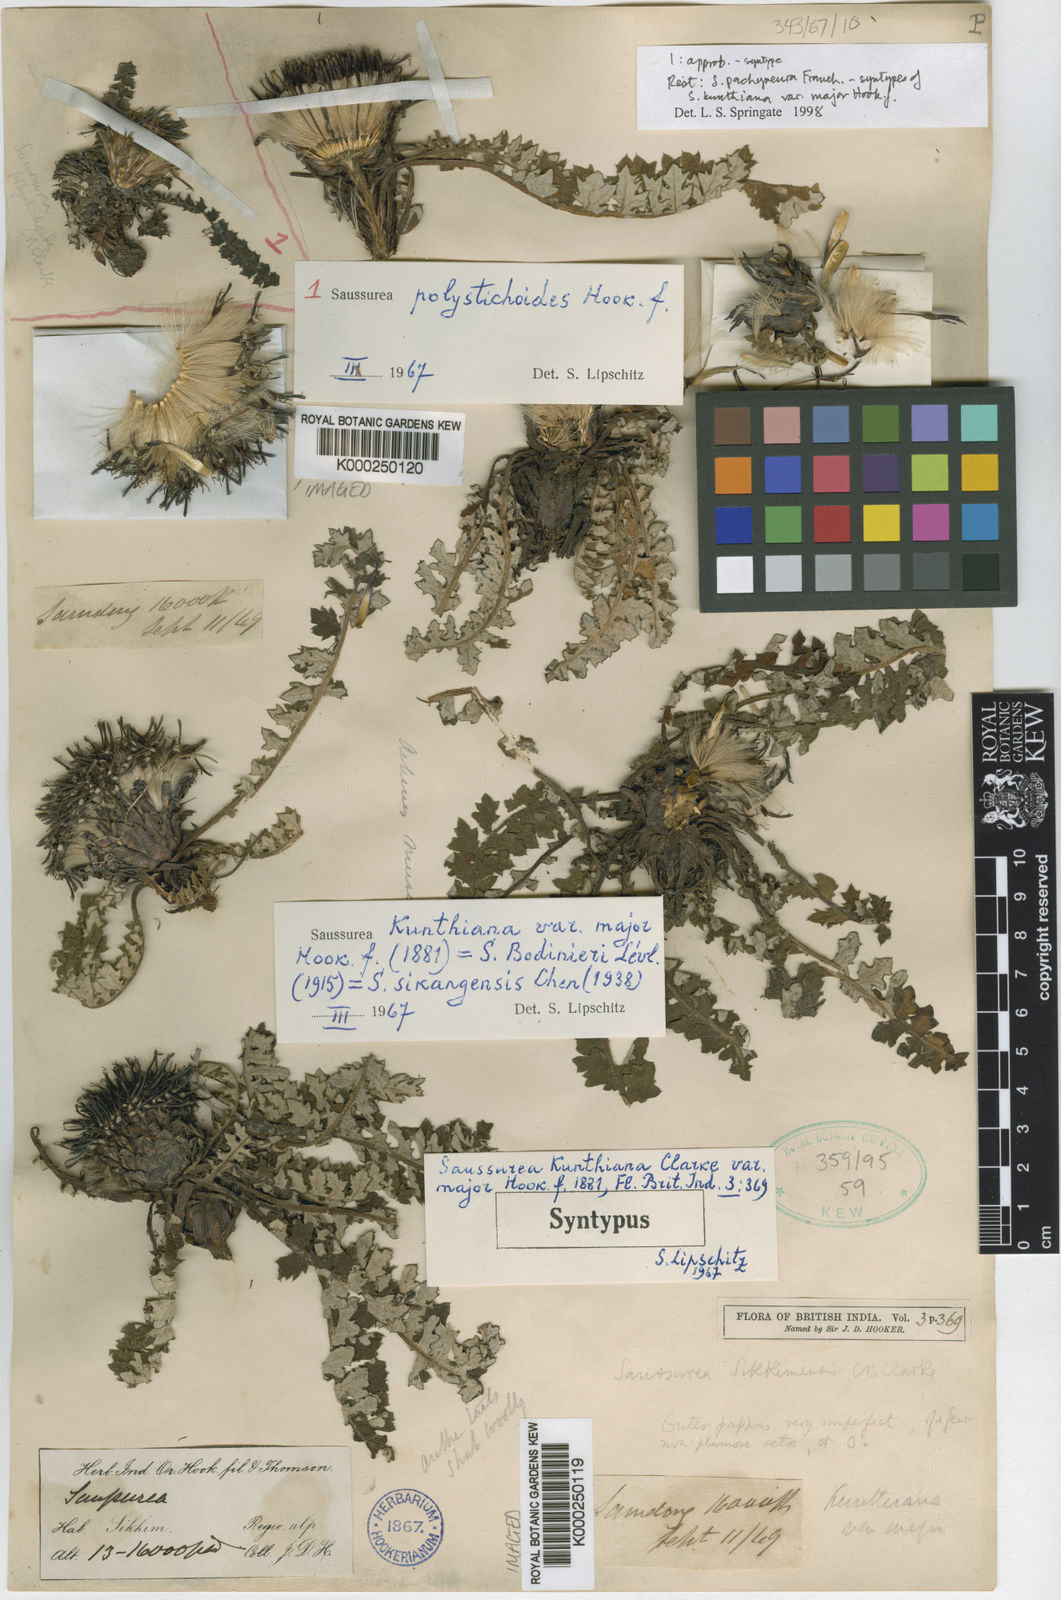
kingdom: Plantae
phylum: Tracheophyta
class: Magnoliopsida
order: Asterales
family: Asteraceae
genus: Saussurea
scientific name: Saussurea pachyneura
